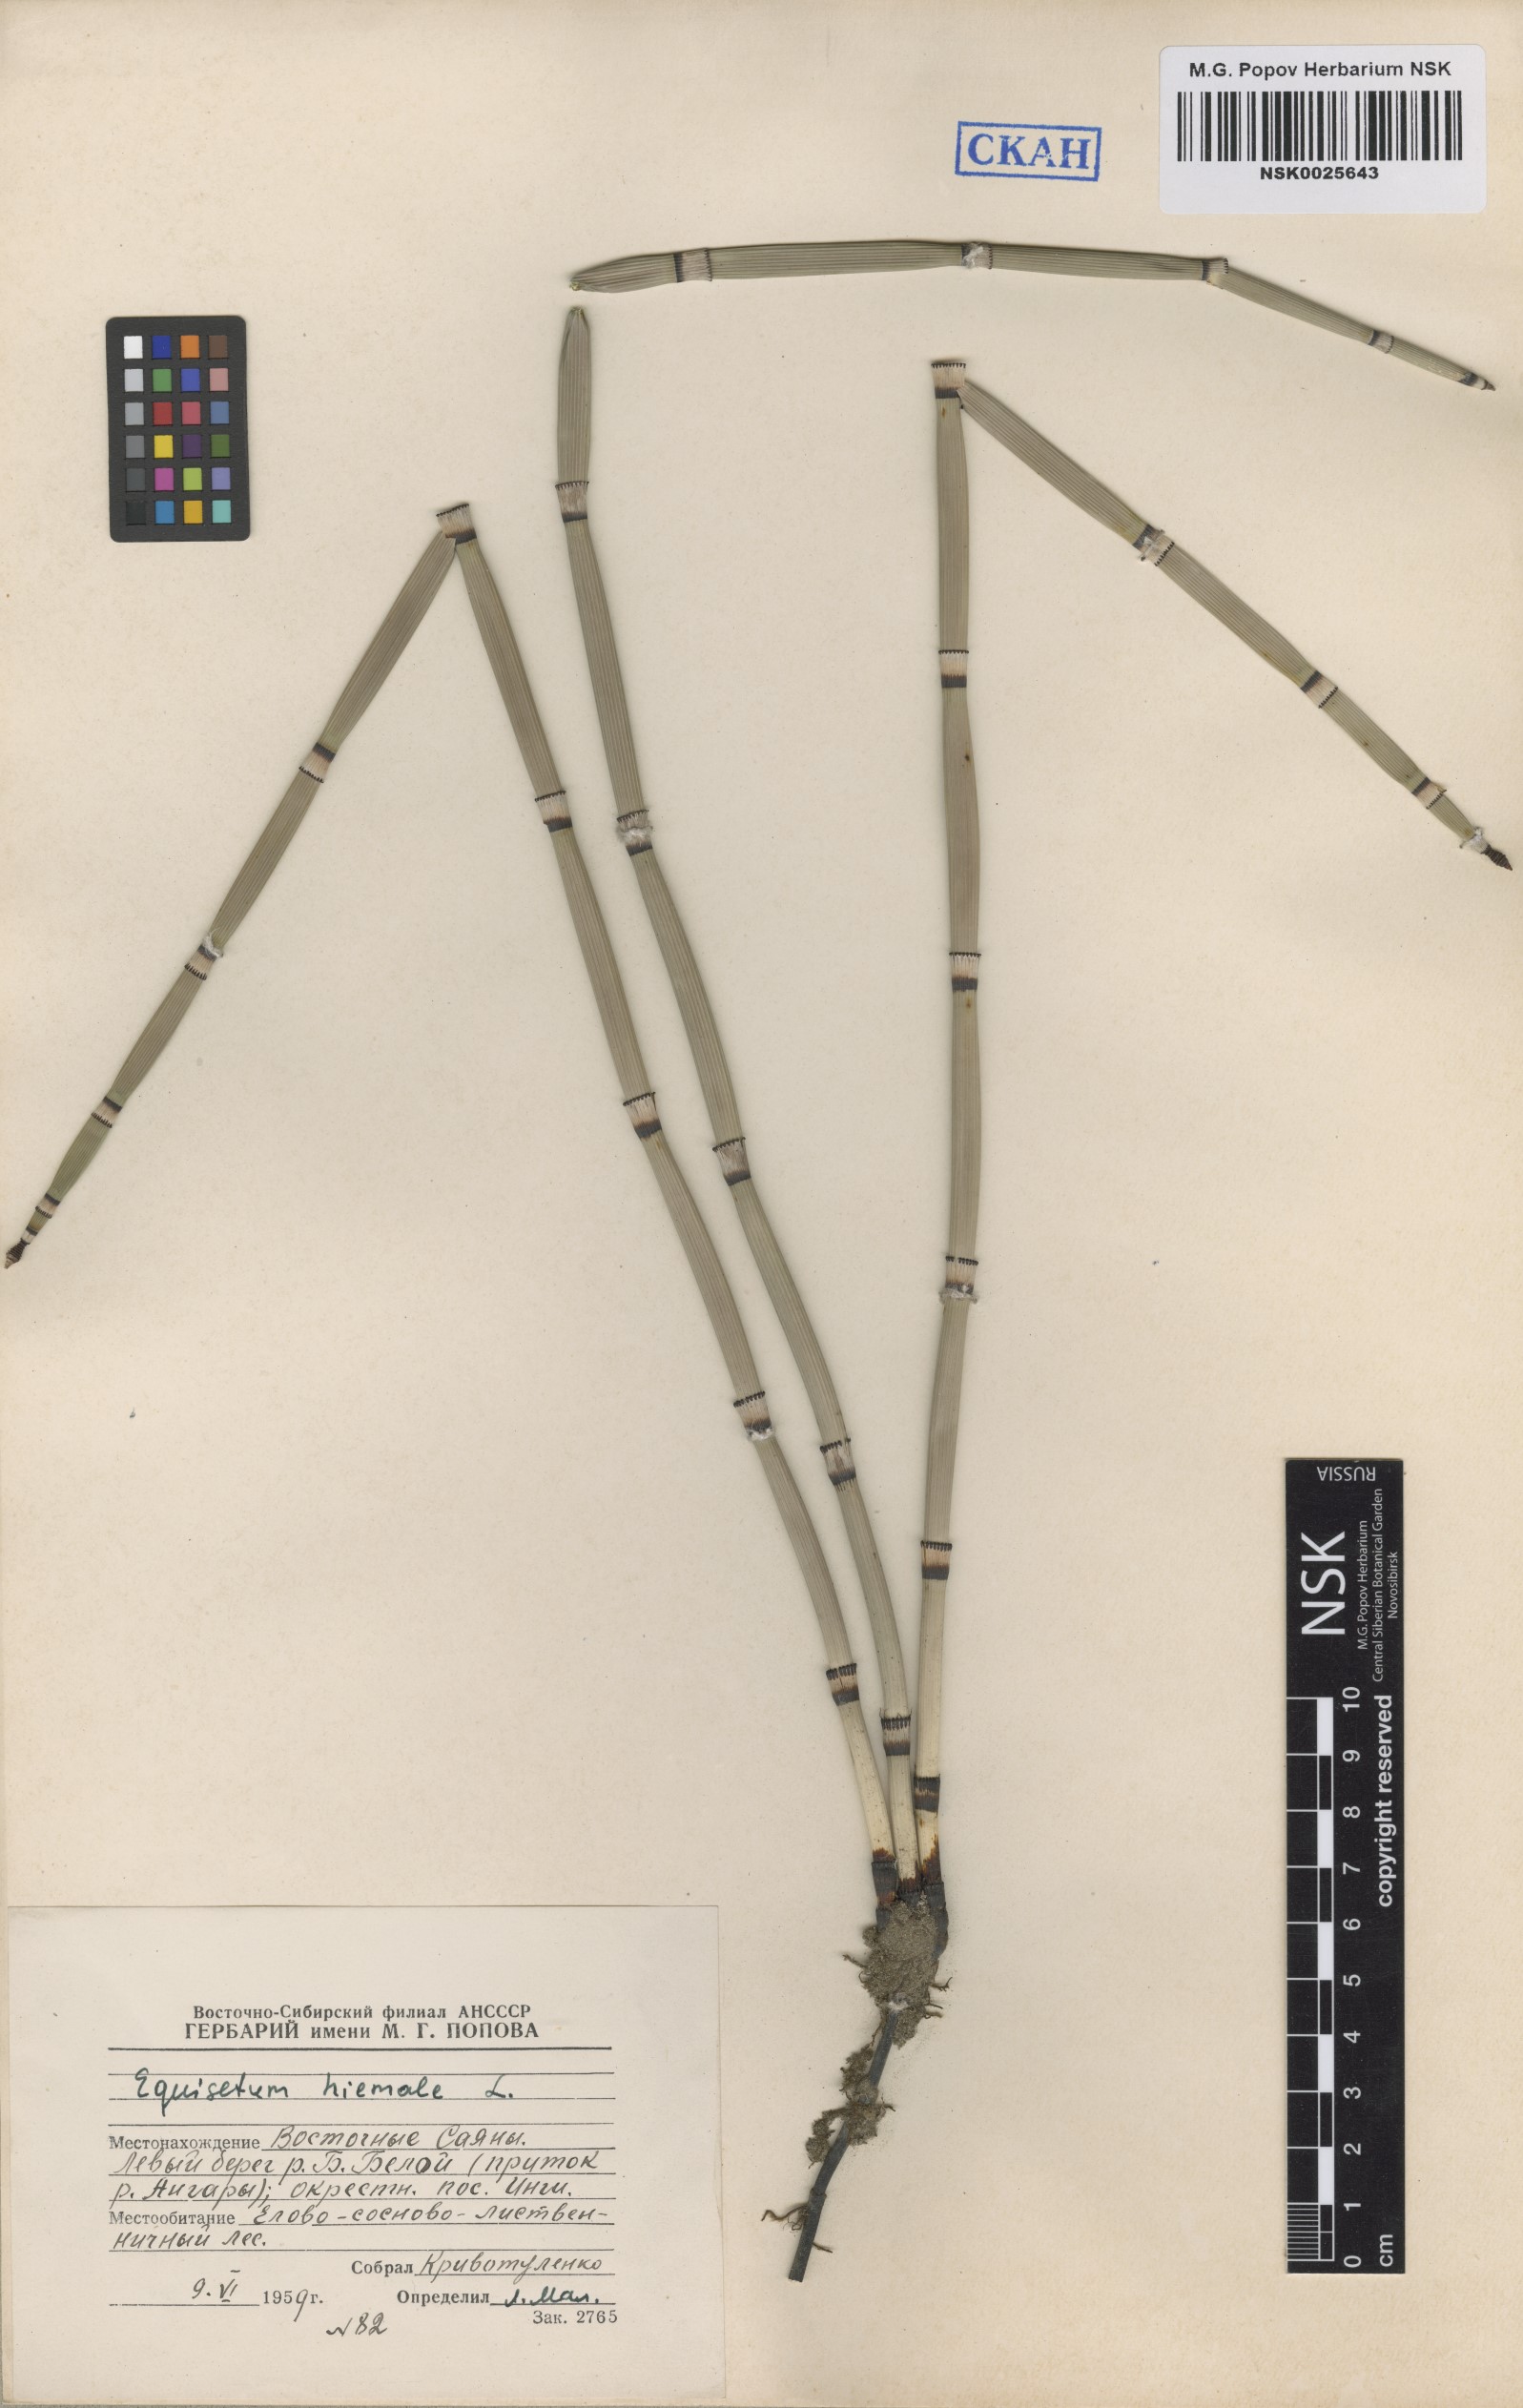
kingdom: Plantae
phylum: Tracheophyta
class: Polypodiopsida
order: Equisetales
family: Equisetaceae
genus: Equisetum
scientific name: Equisetum hyemale
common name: Rough horsetail
